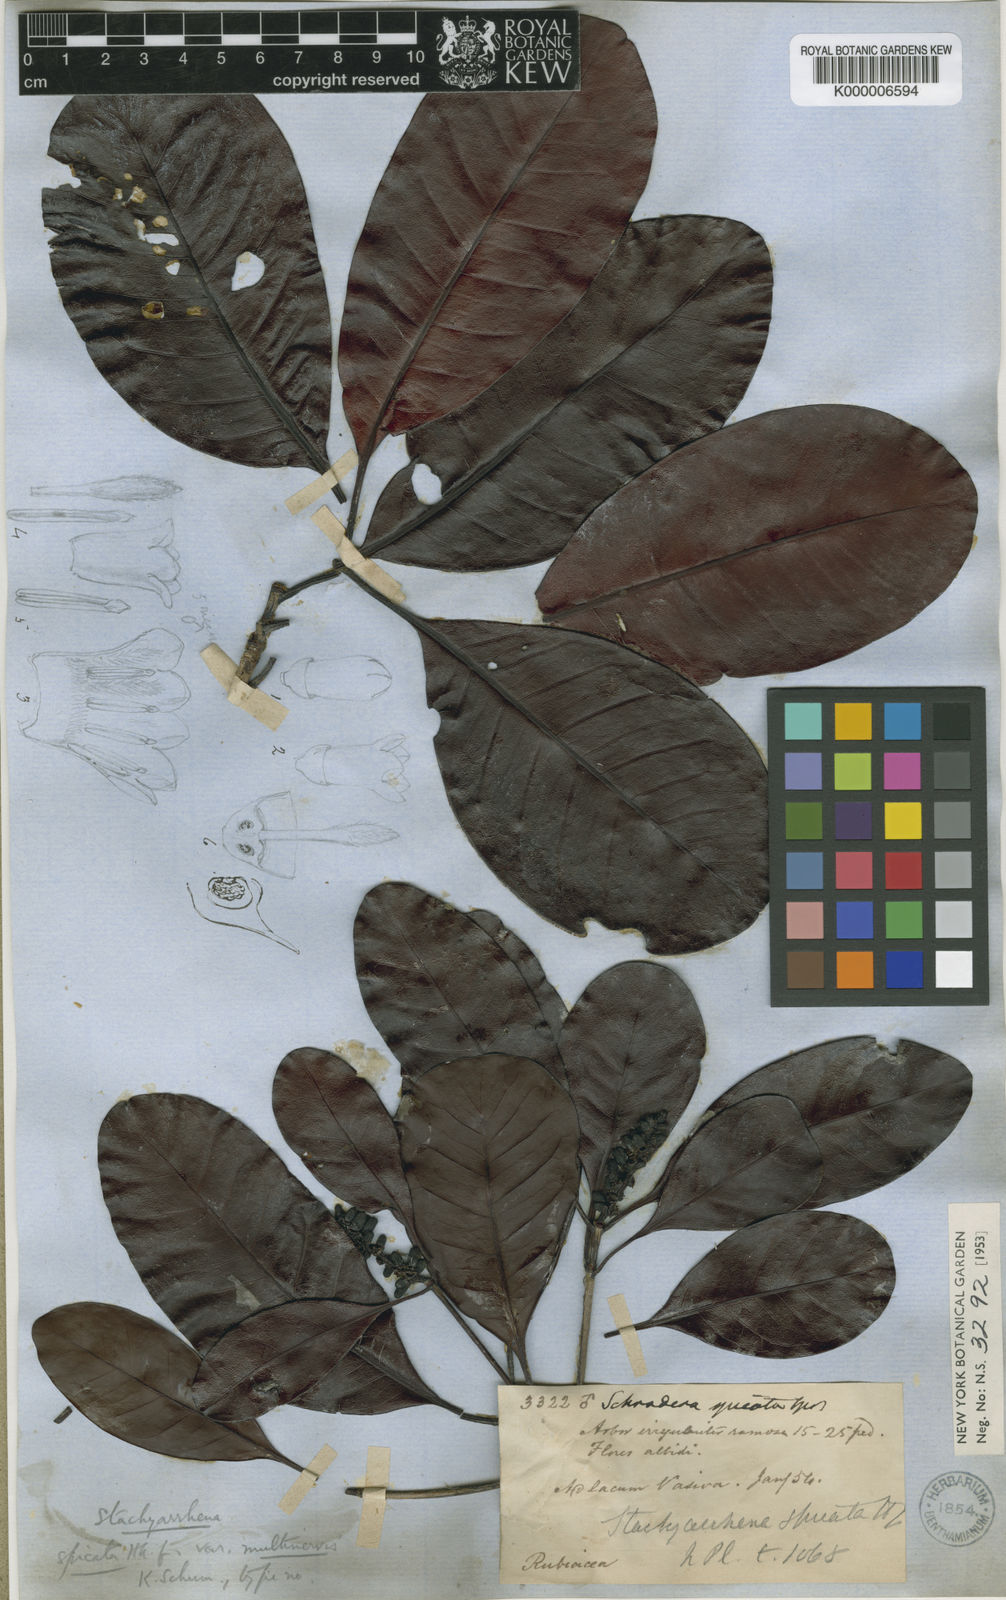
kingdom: Plantae
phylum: Tracheophyta
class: Magnoliopsida
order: Gentianales
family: Rubiaceae
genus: Stachyarrhena
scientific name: Stachyarrhena spicata
